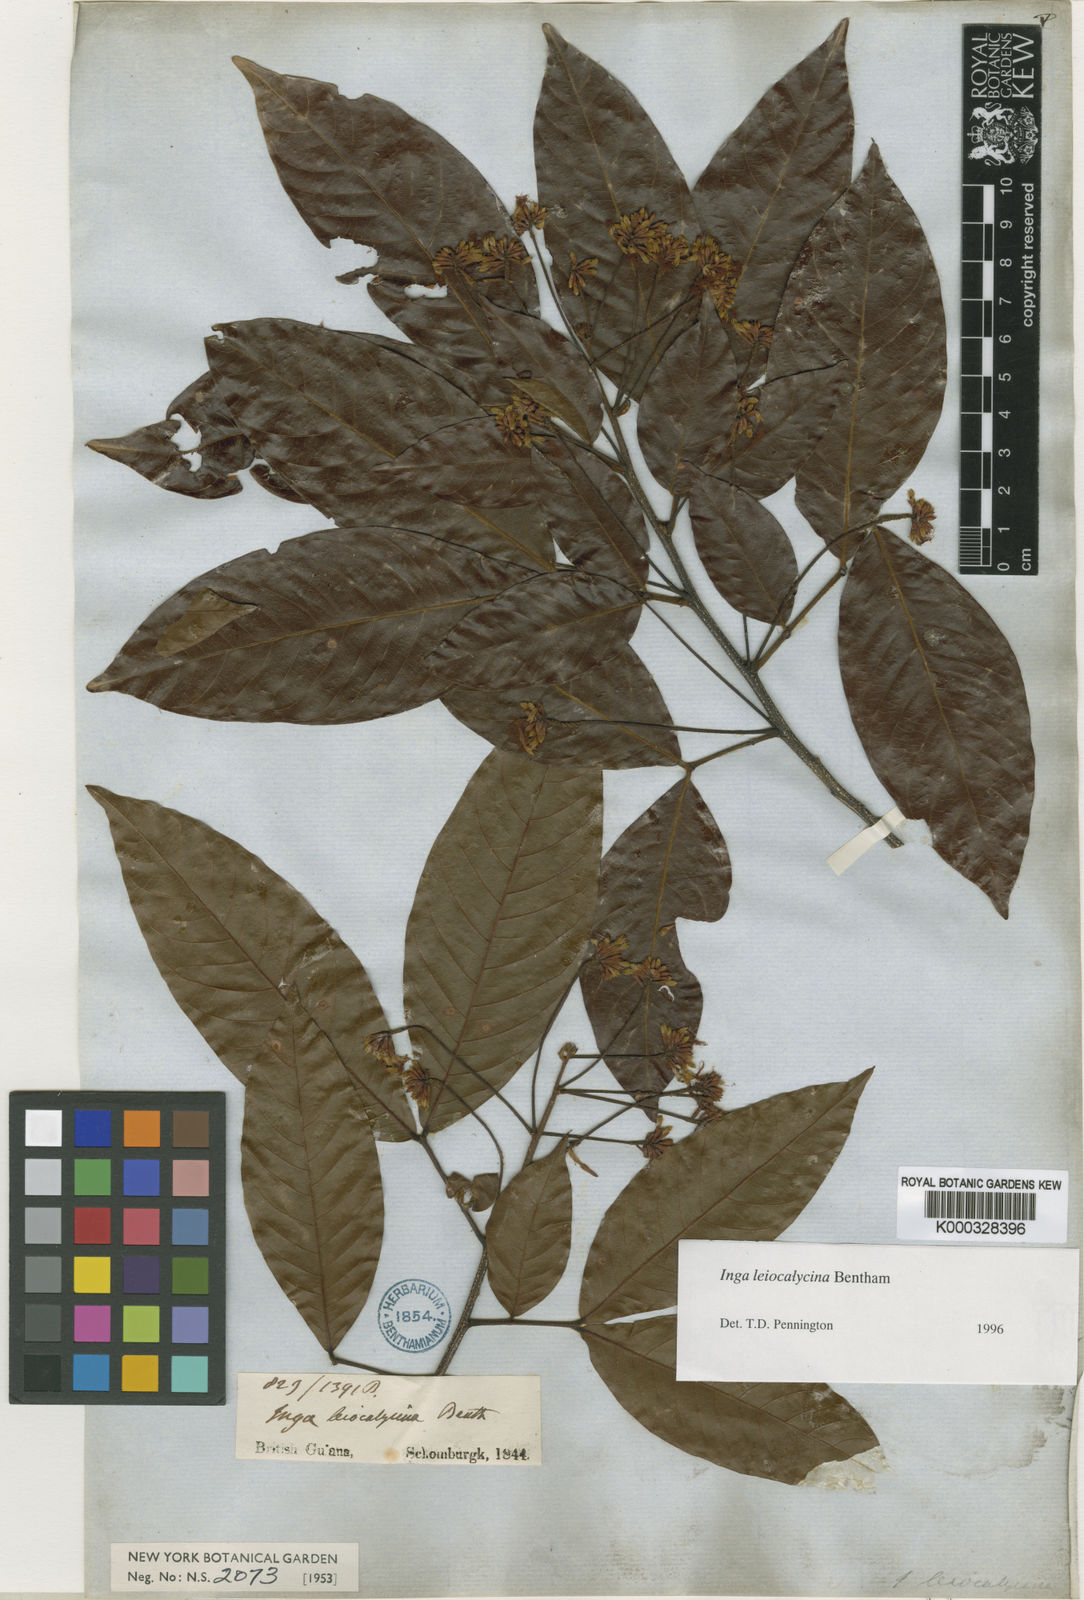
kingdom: Plantae
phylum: Tracheophyta
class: Magnoliopsida
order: Fabales
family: Fabaceae
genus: Inga
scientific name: Inga laevigata
